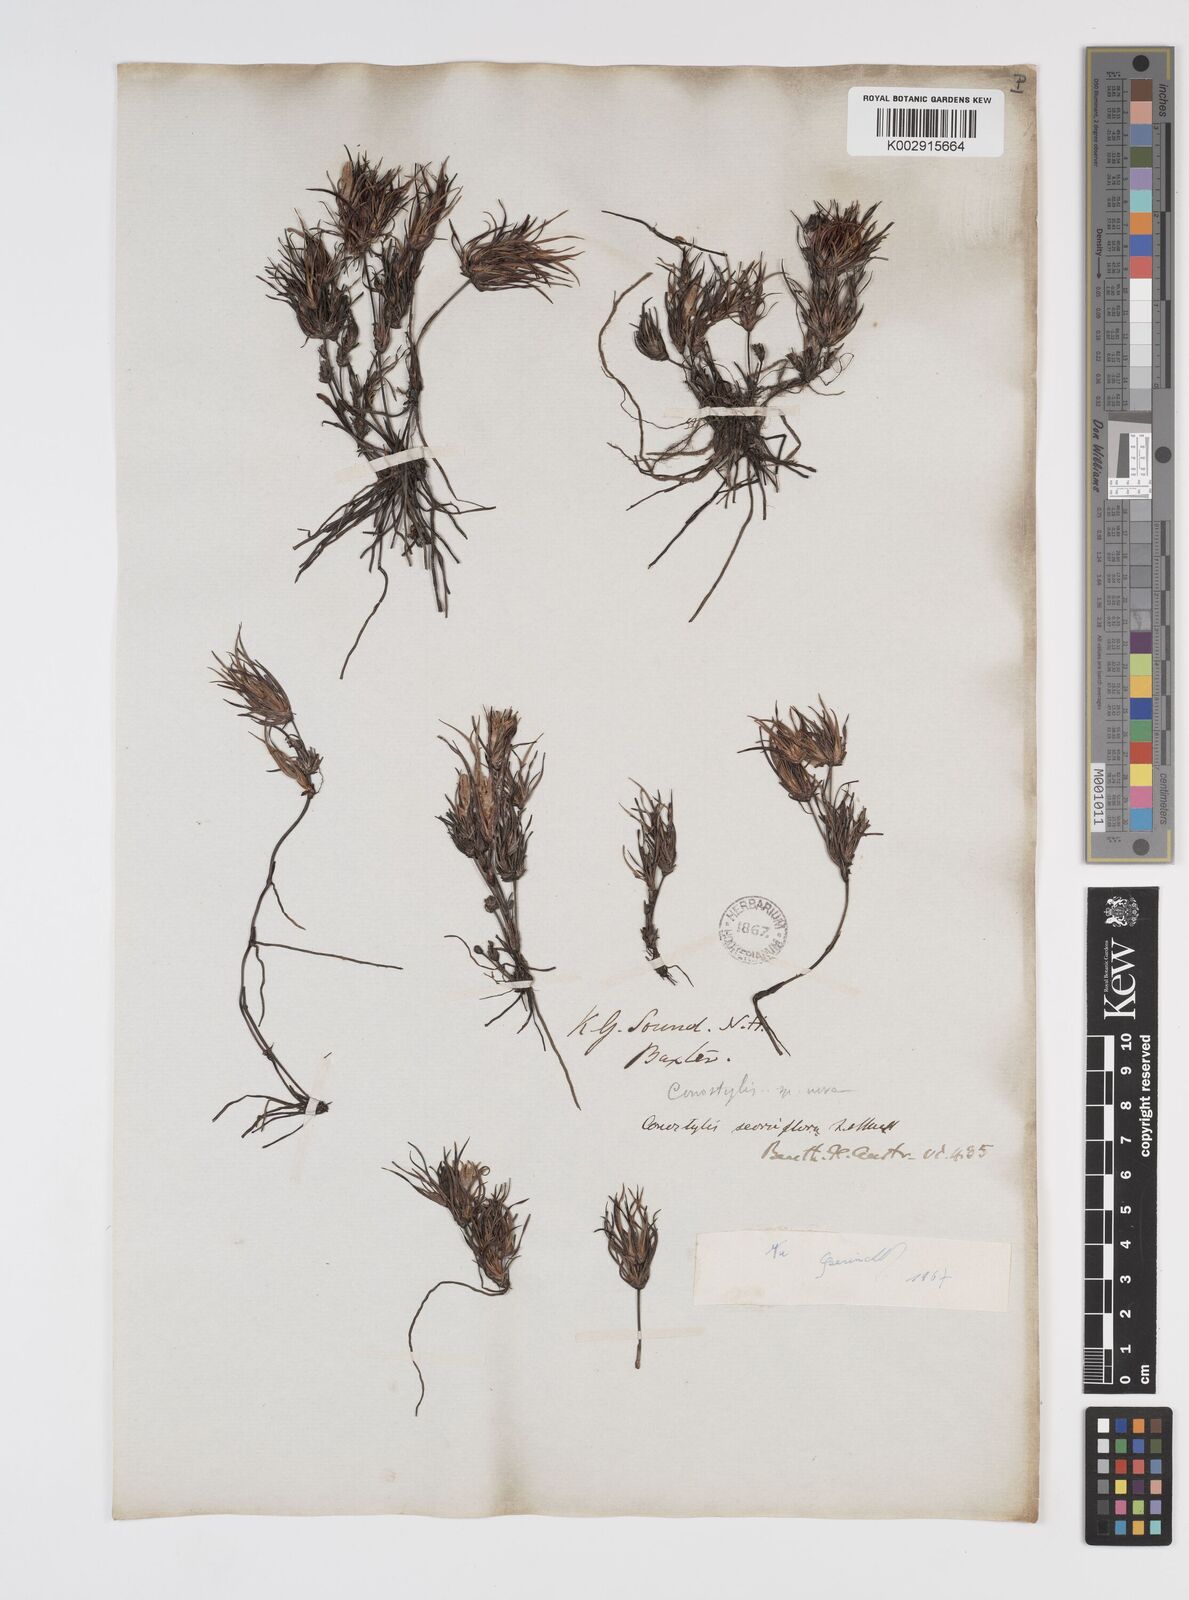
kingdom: Plantae
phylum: Tracheophyta
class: Liliopsida
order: Commelinales
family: Haemodoraceae
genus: Conostylis
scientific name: Conostylis seorsiflora
